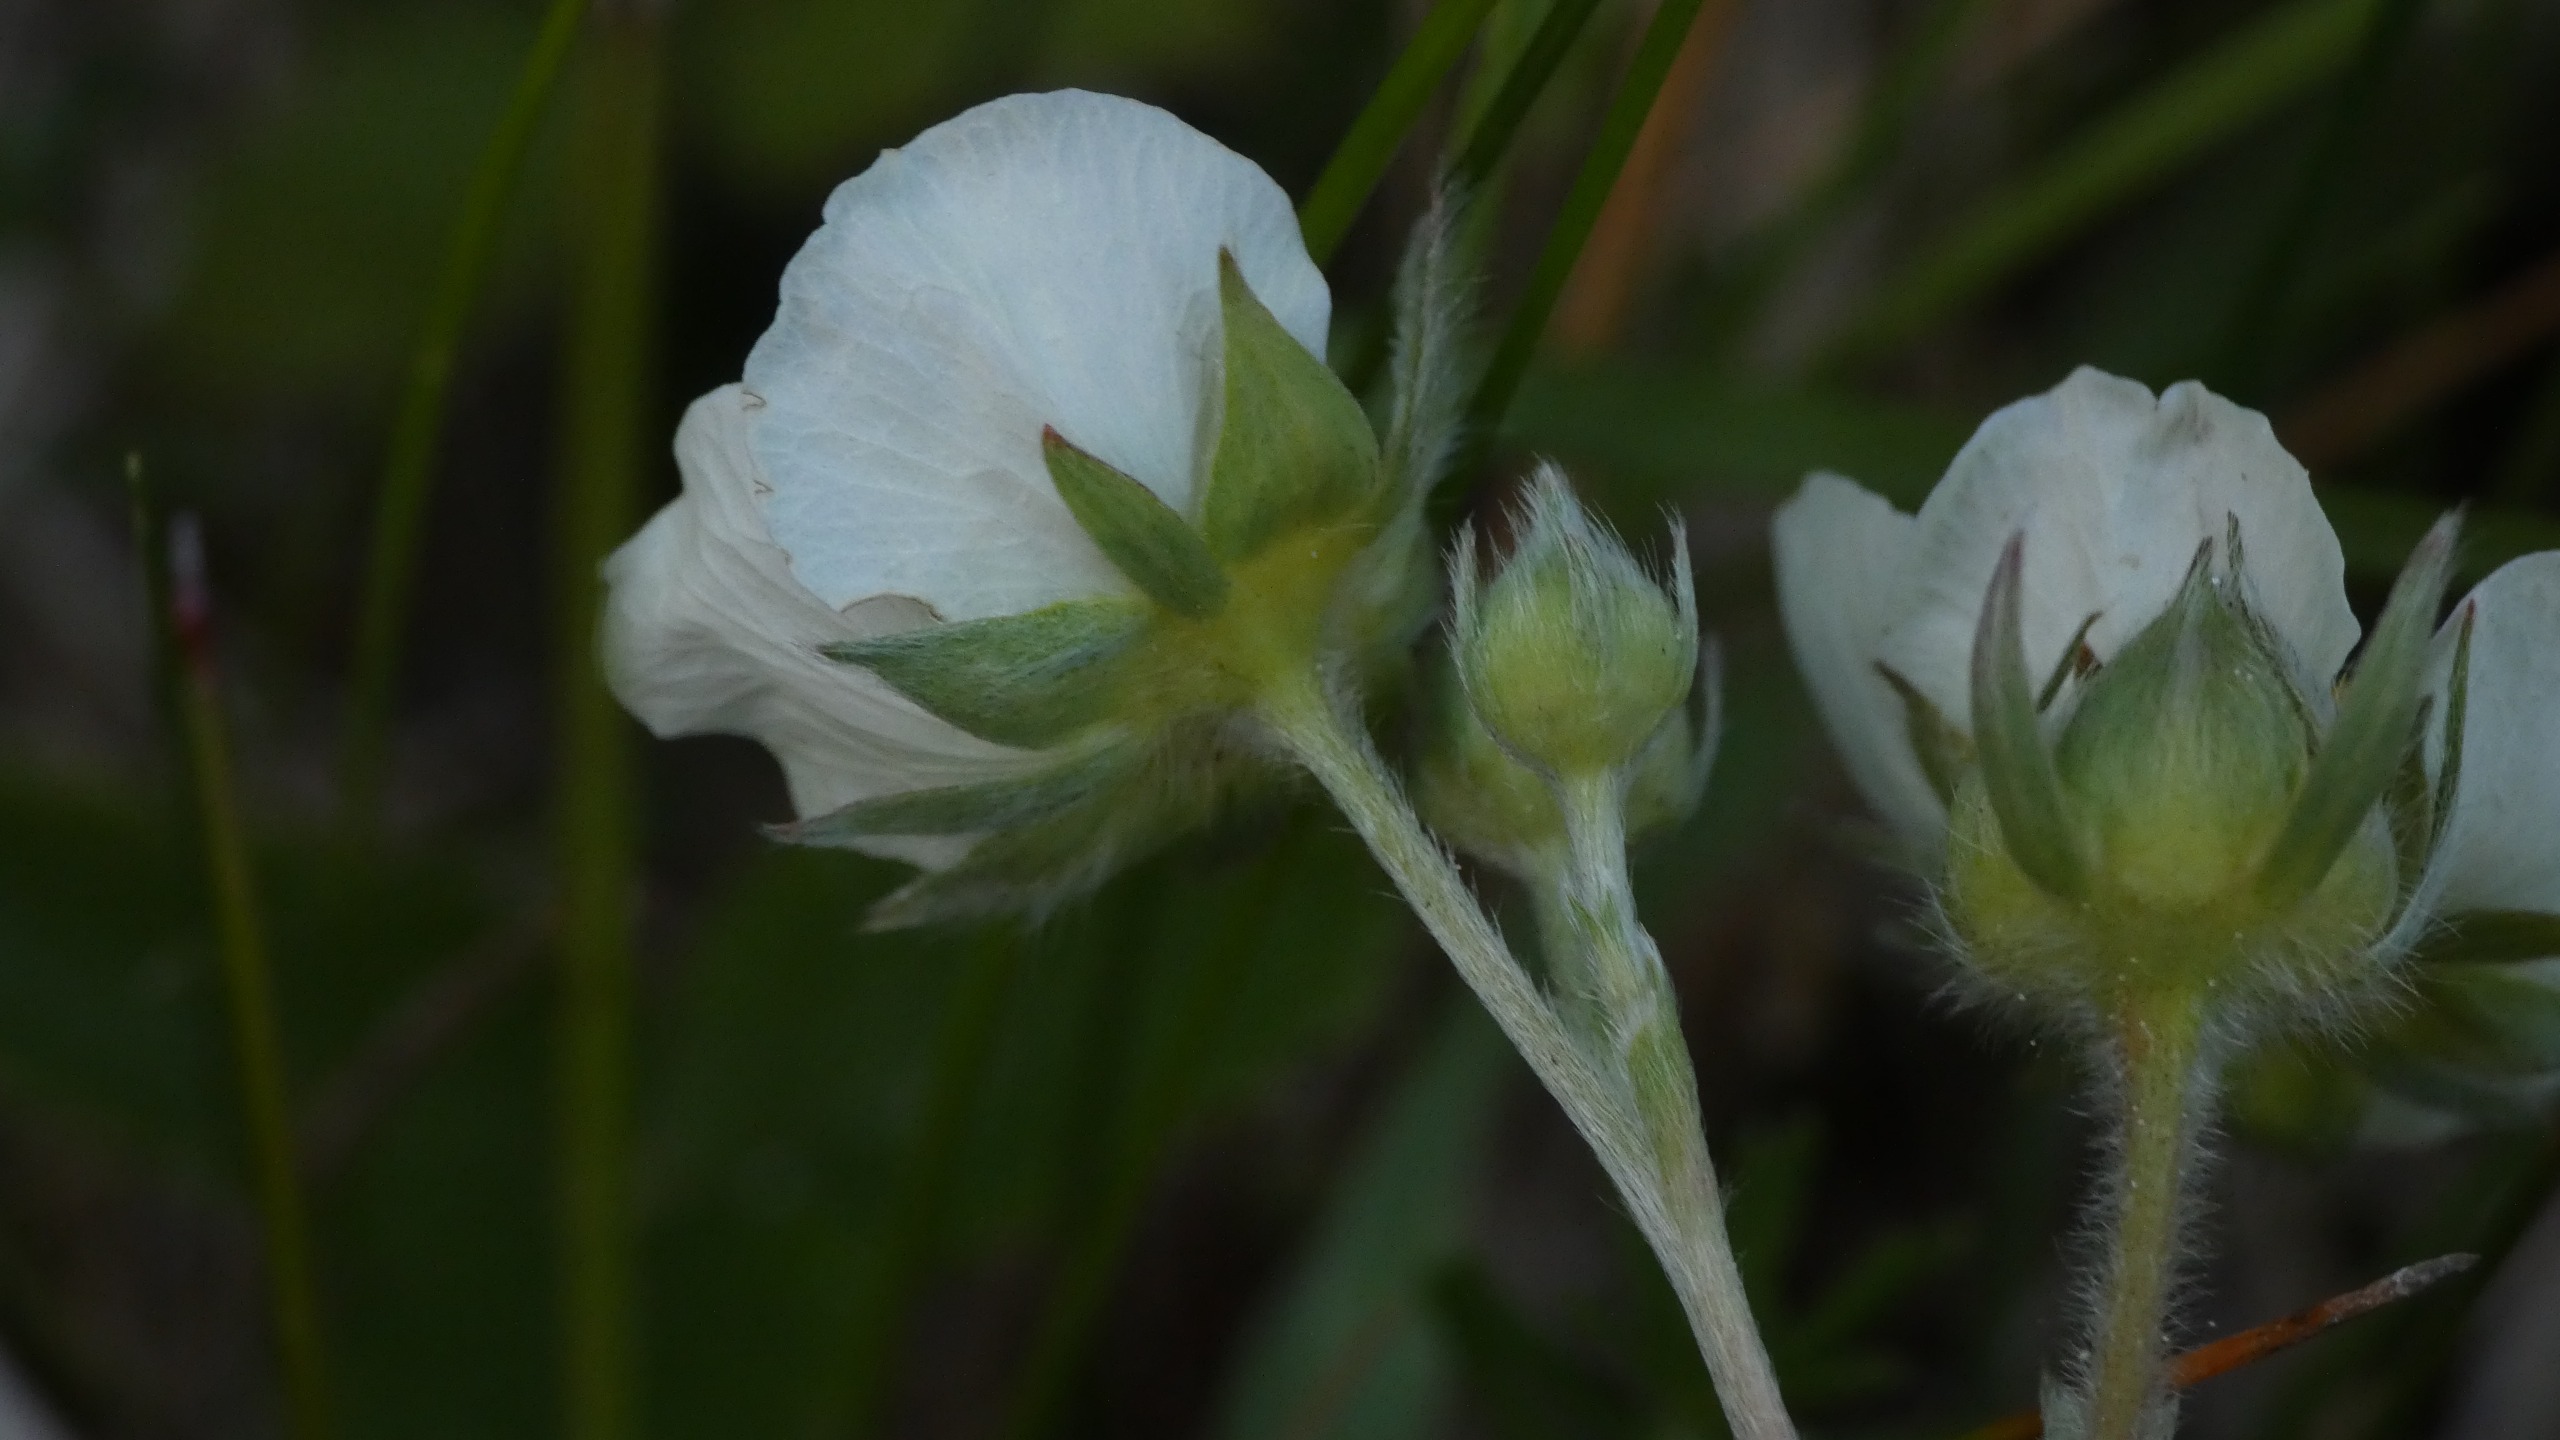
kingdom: Plantae
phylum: Tracheophyta
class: Magnoliopsida
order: Rosales
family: Rosaceae
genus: Fragaria
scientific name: Fragaria vesca
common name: Skov-jordbær
